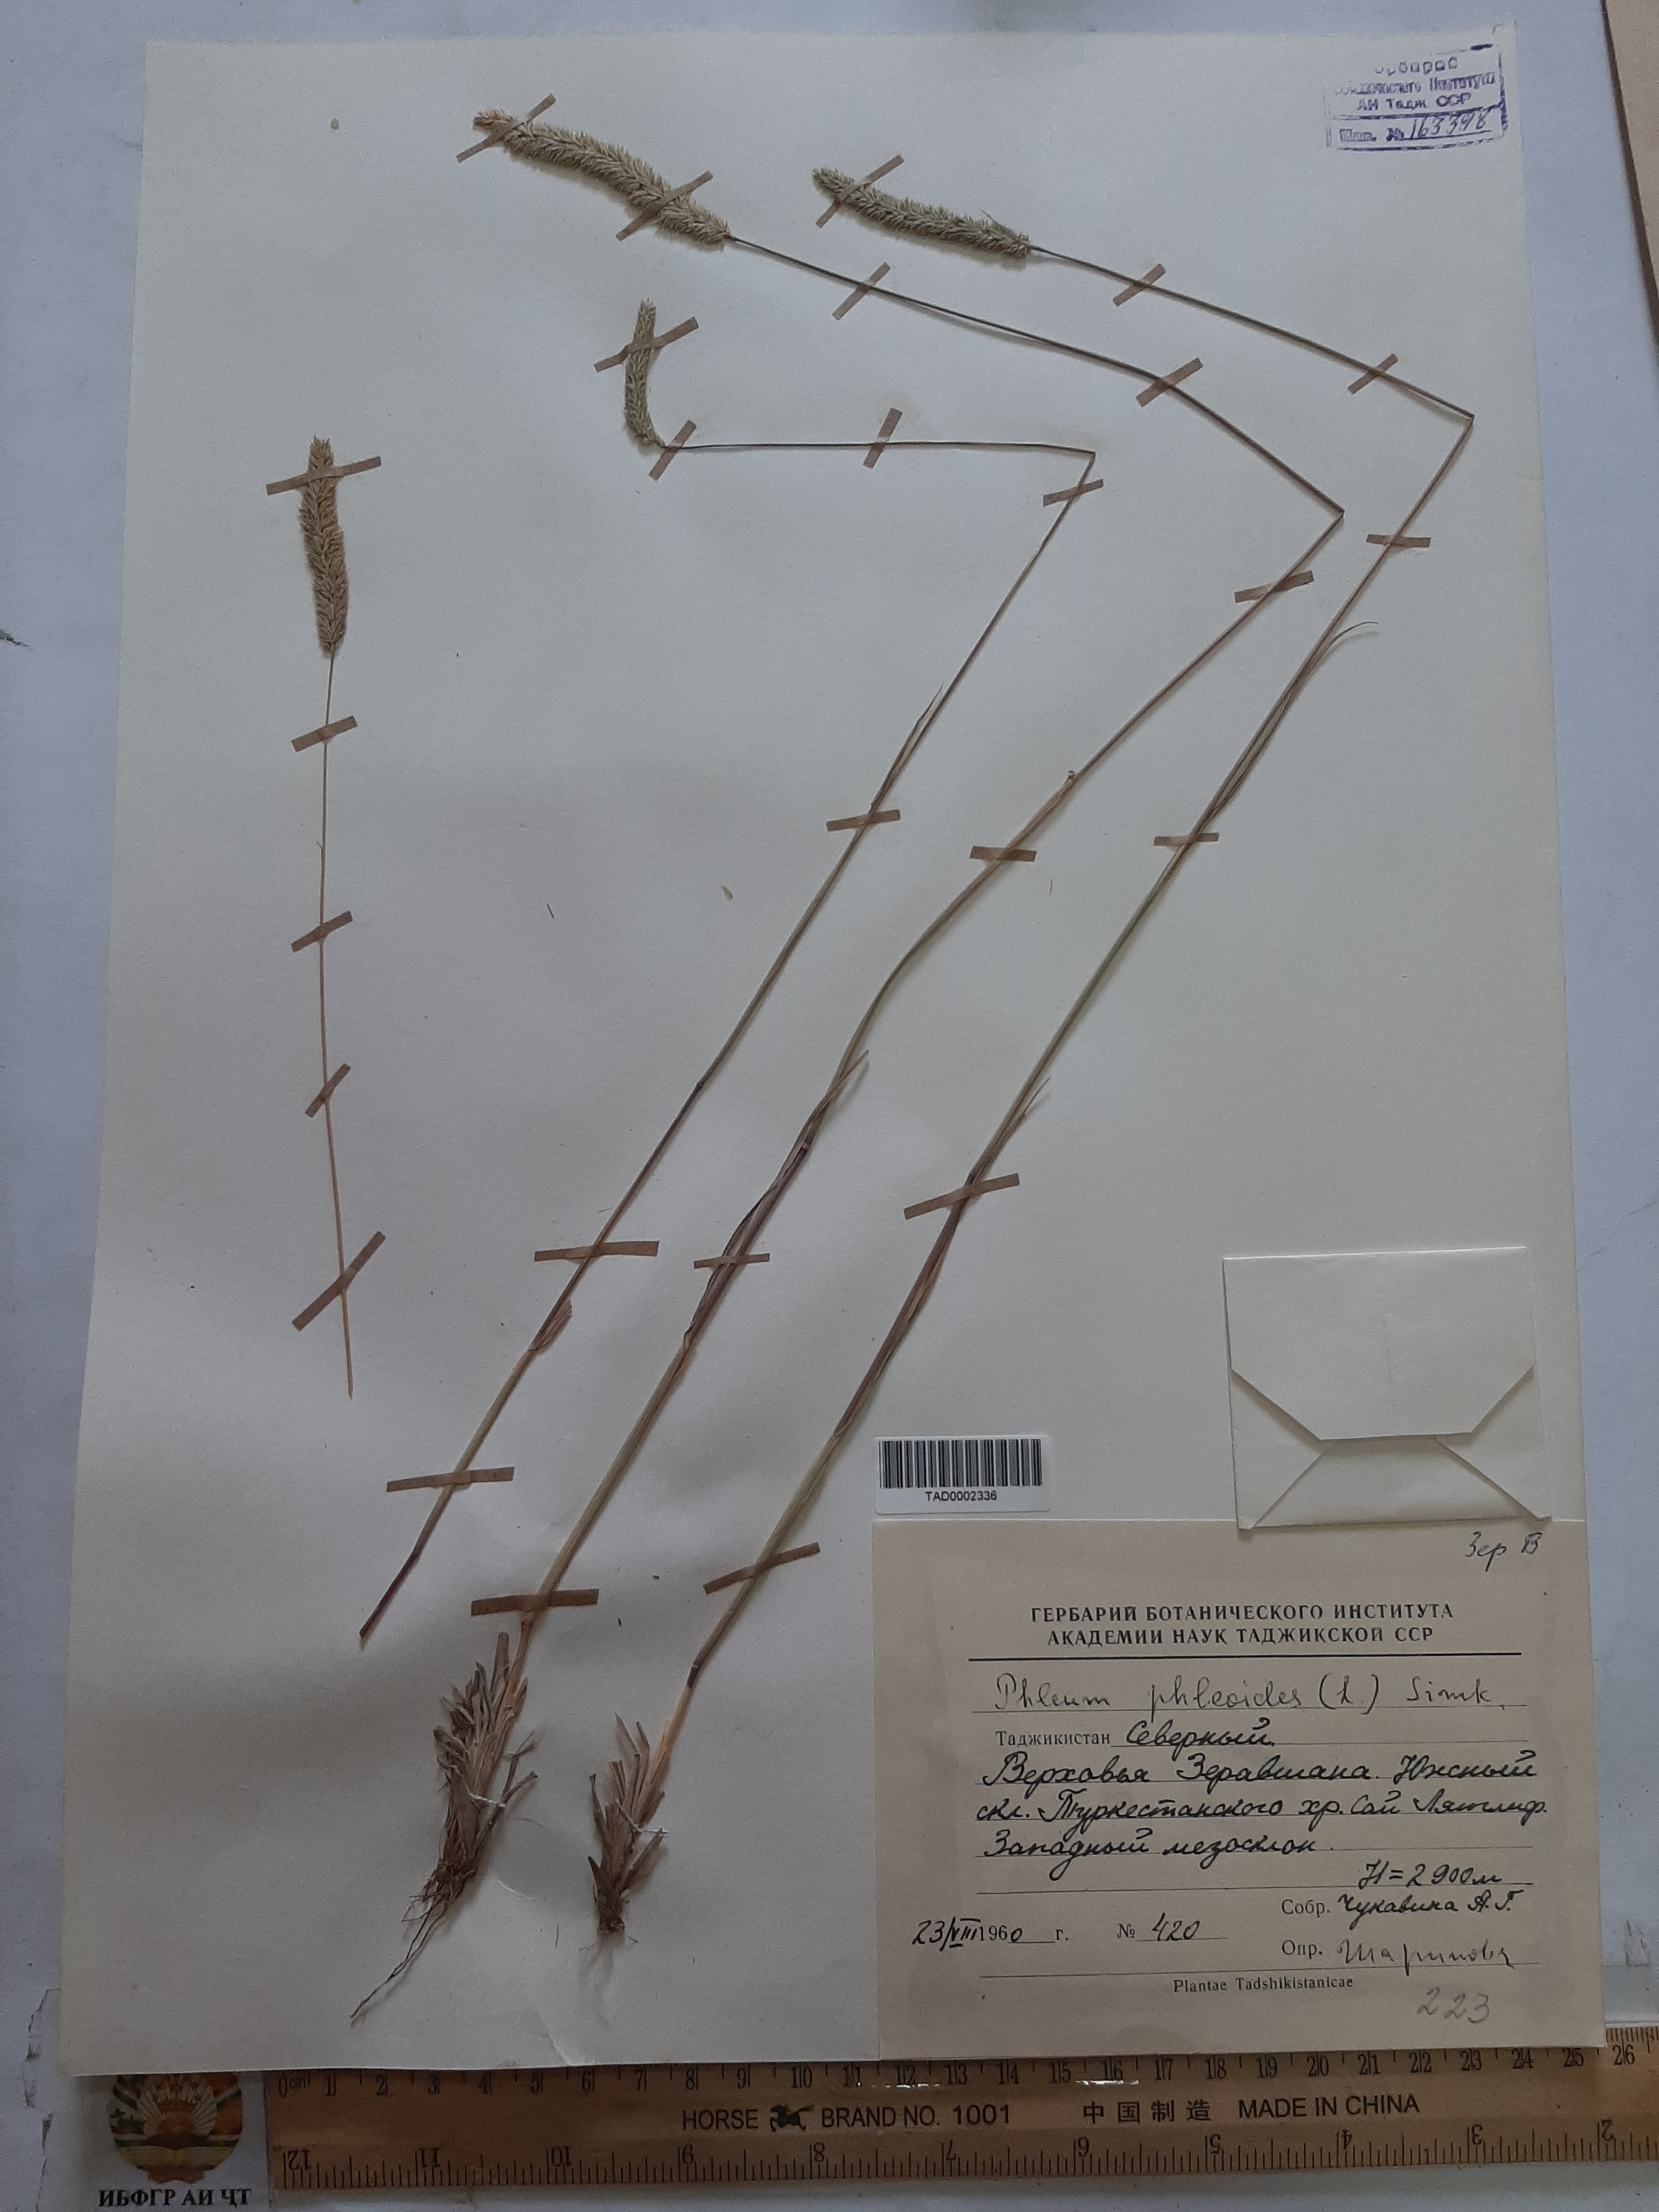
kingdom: Plantae
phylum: Tracheophyta
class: Liliopsida
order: Poales
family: Poaceae
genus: Phleum
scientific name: Phleum phleoides
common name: Purple-stem cat's-tail
